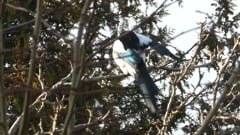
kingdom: Animalia
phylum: Chordata
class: Aves
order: Passeriformes
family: Corvidae
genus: Pica
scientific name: Pica pica
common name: Eurasian magpie
